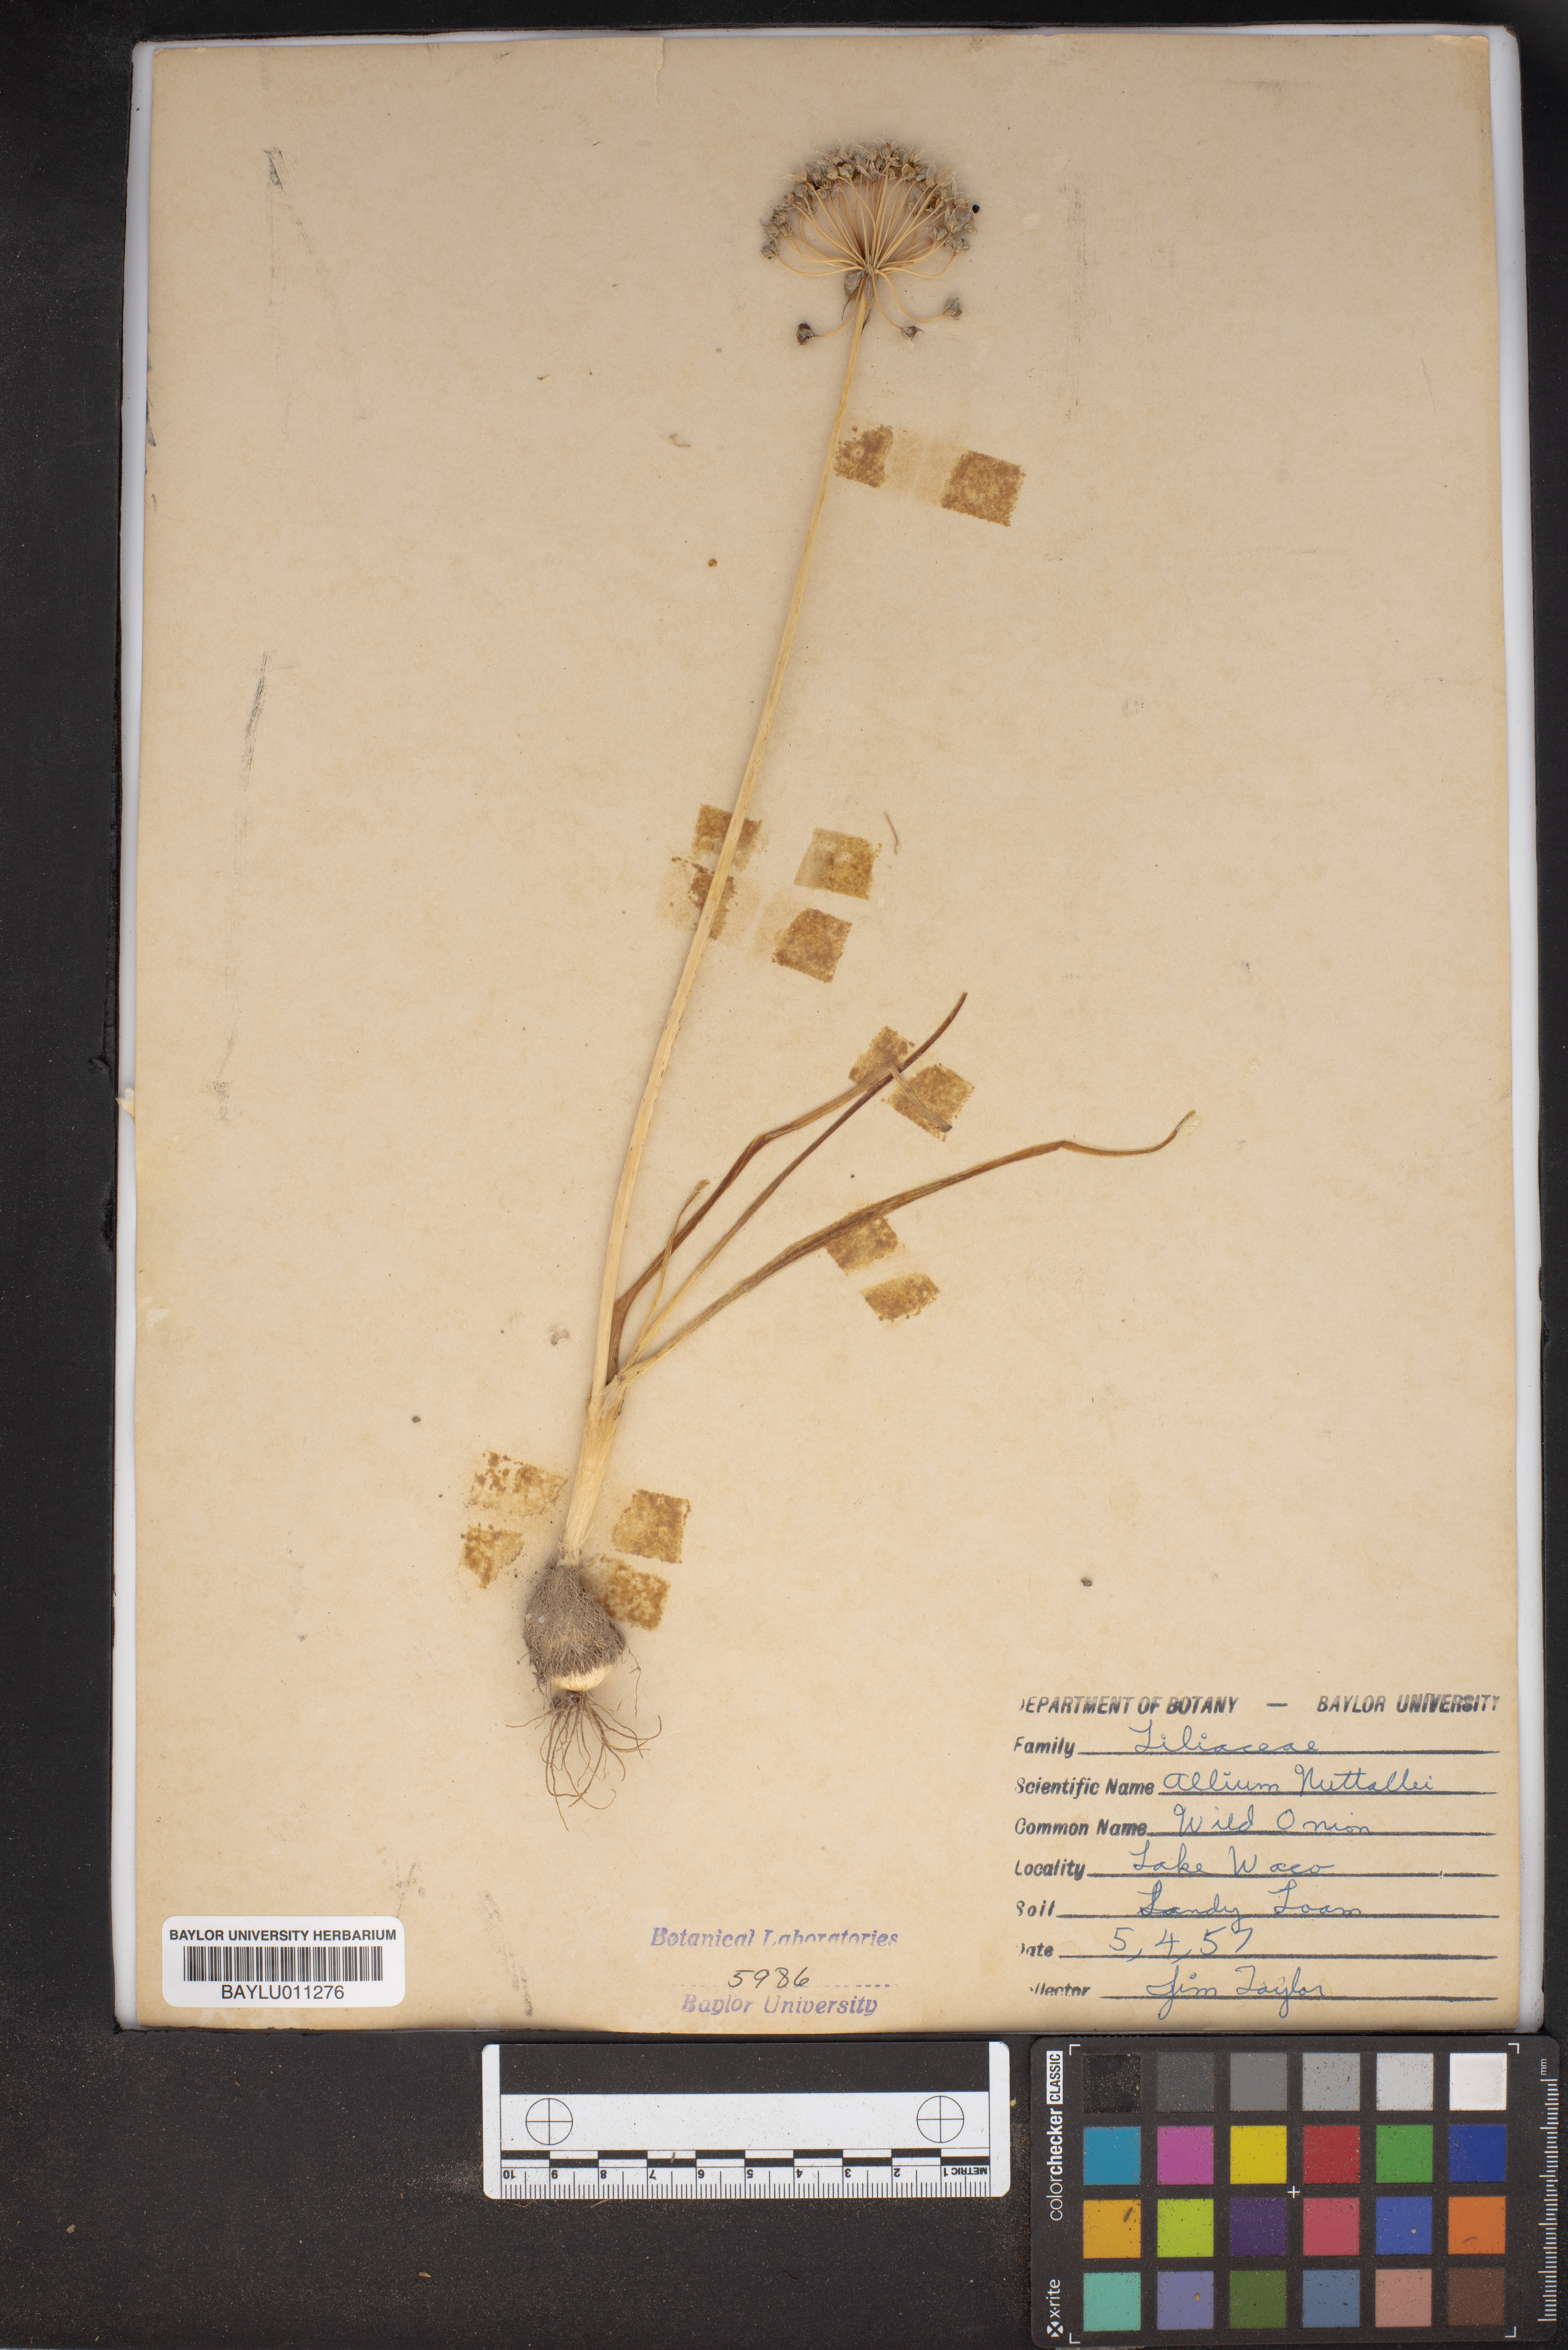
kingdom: Plantae
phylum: Tracheophyta
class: Liliopsida
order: Asparagales
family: Amaryllidaceae
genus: Allium
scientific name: Allium drummondii
